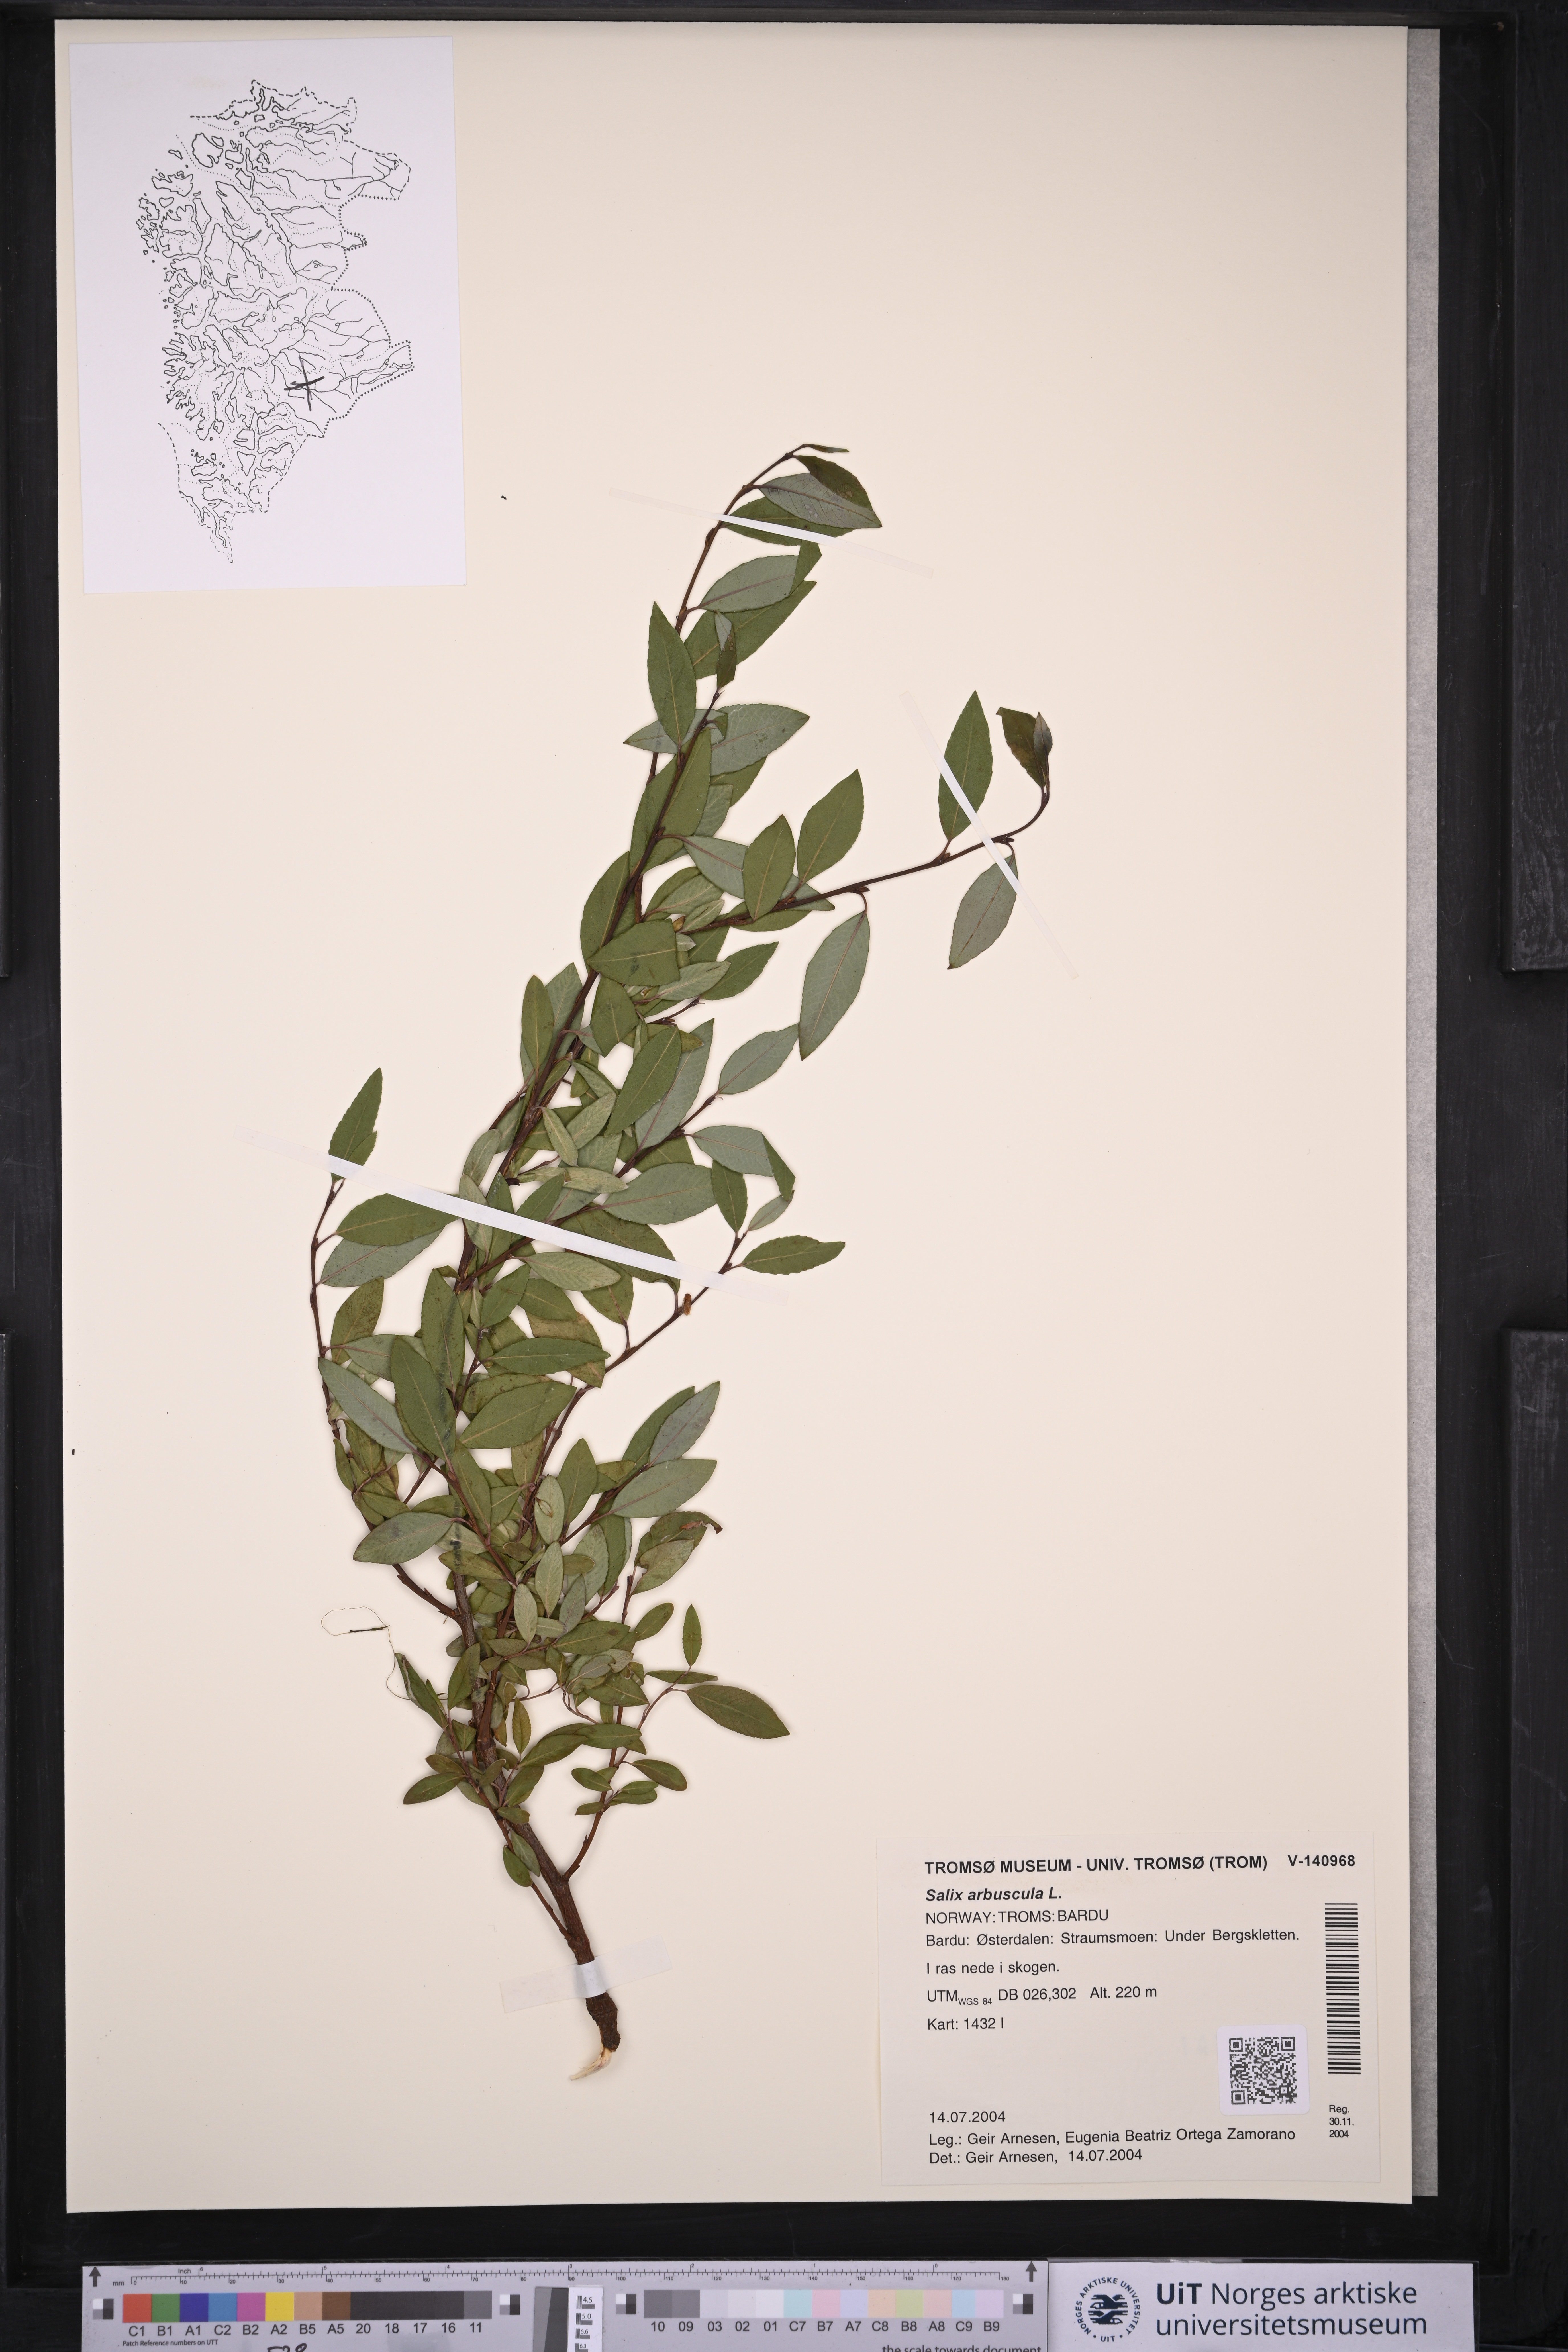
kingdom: Plantae
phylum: Tracheophyta
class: Magnoliopsida
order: Malpighiales
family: Salicaceae
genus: Salix
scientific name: Salix arbuscula
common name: Mountain willow
